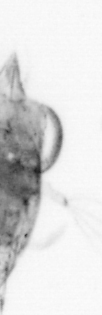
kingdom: Animalia
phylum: Arthropoda
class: Copepoda
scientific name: Copepoda
